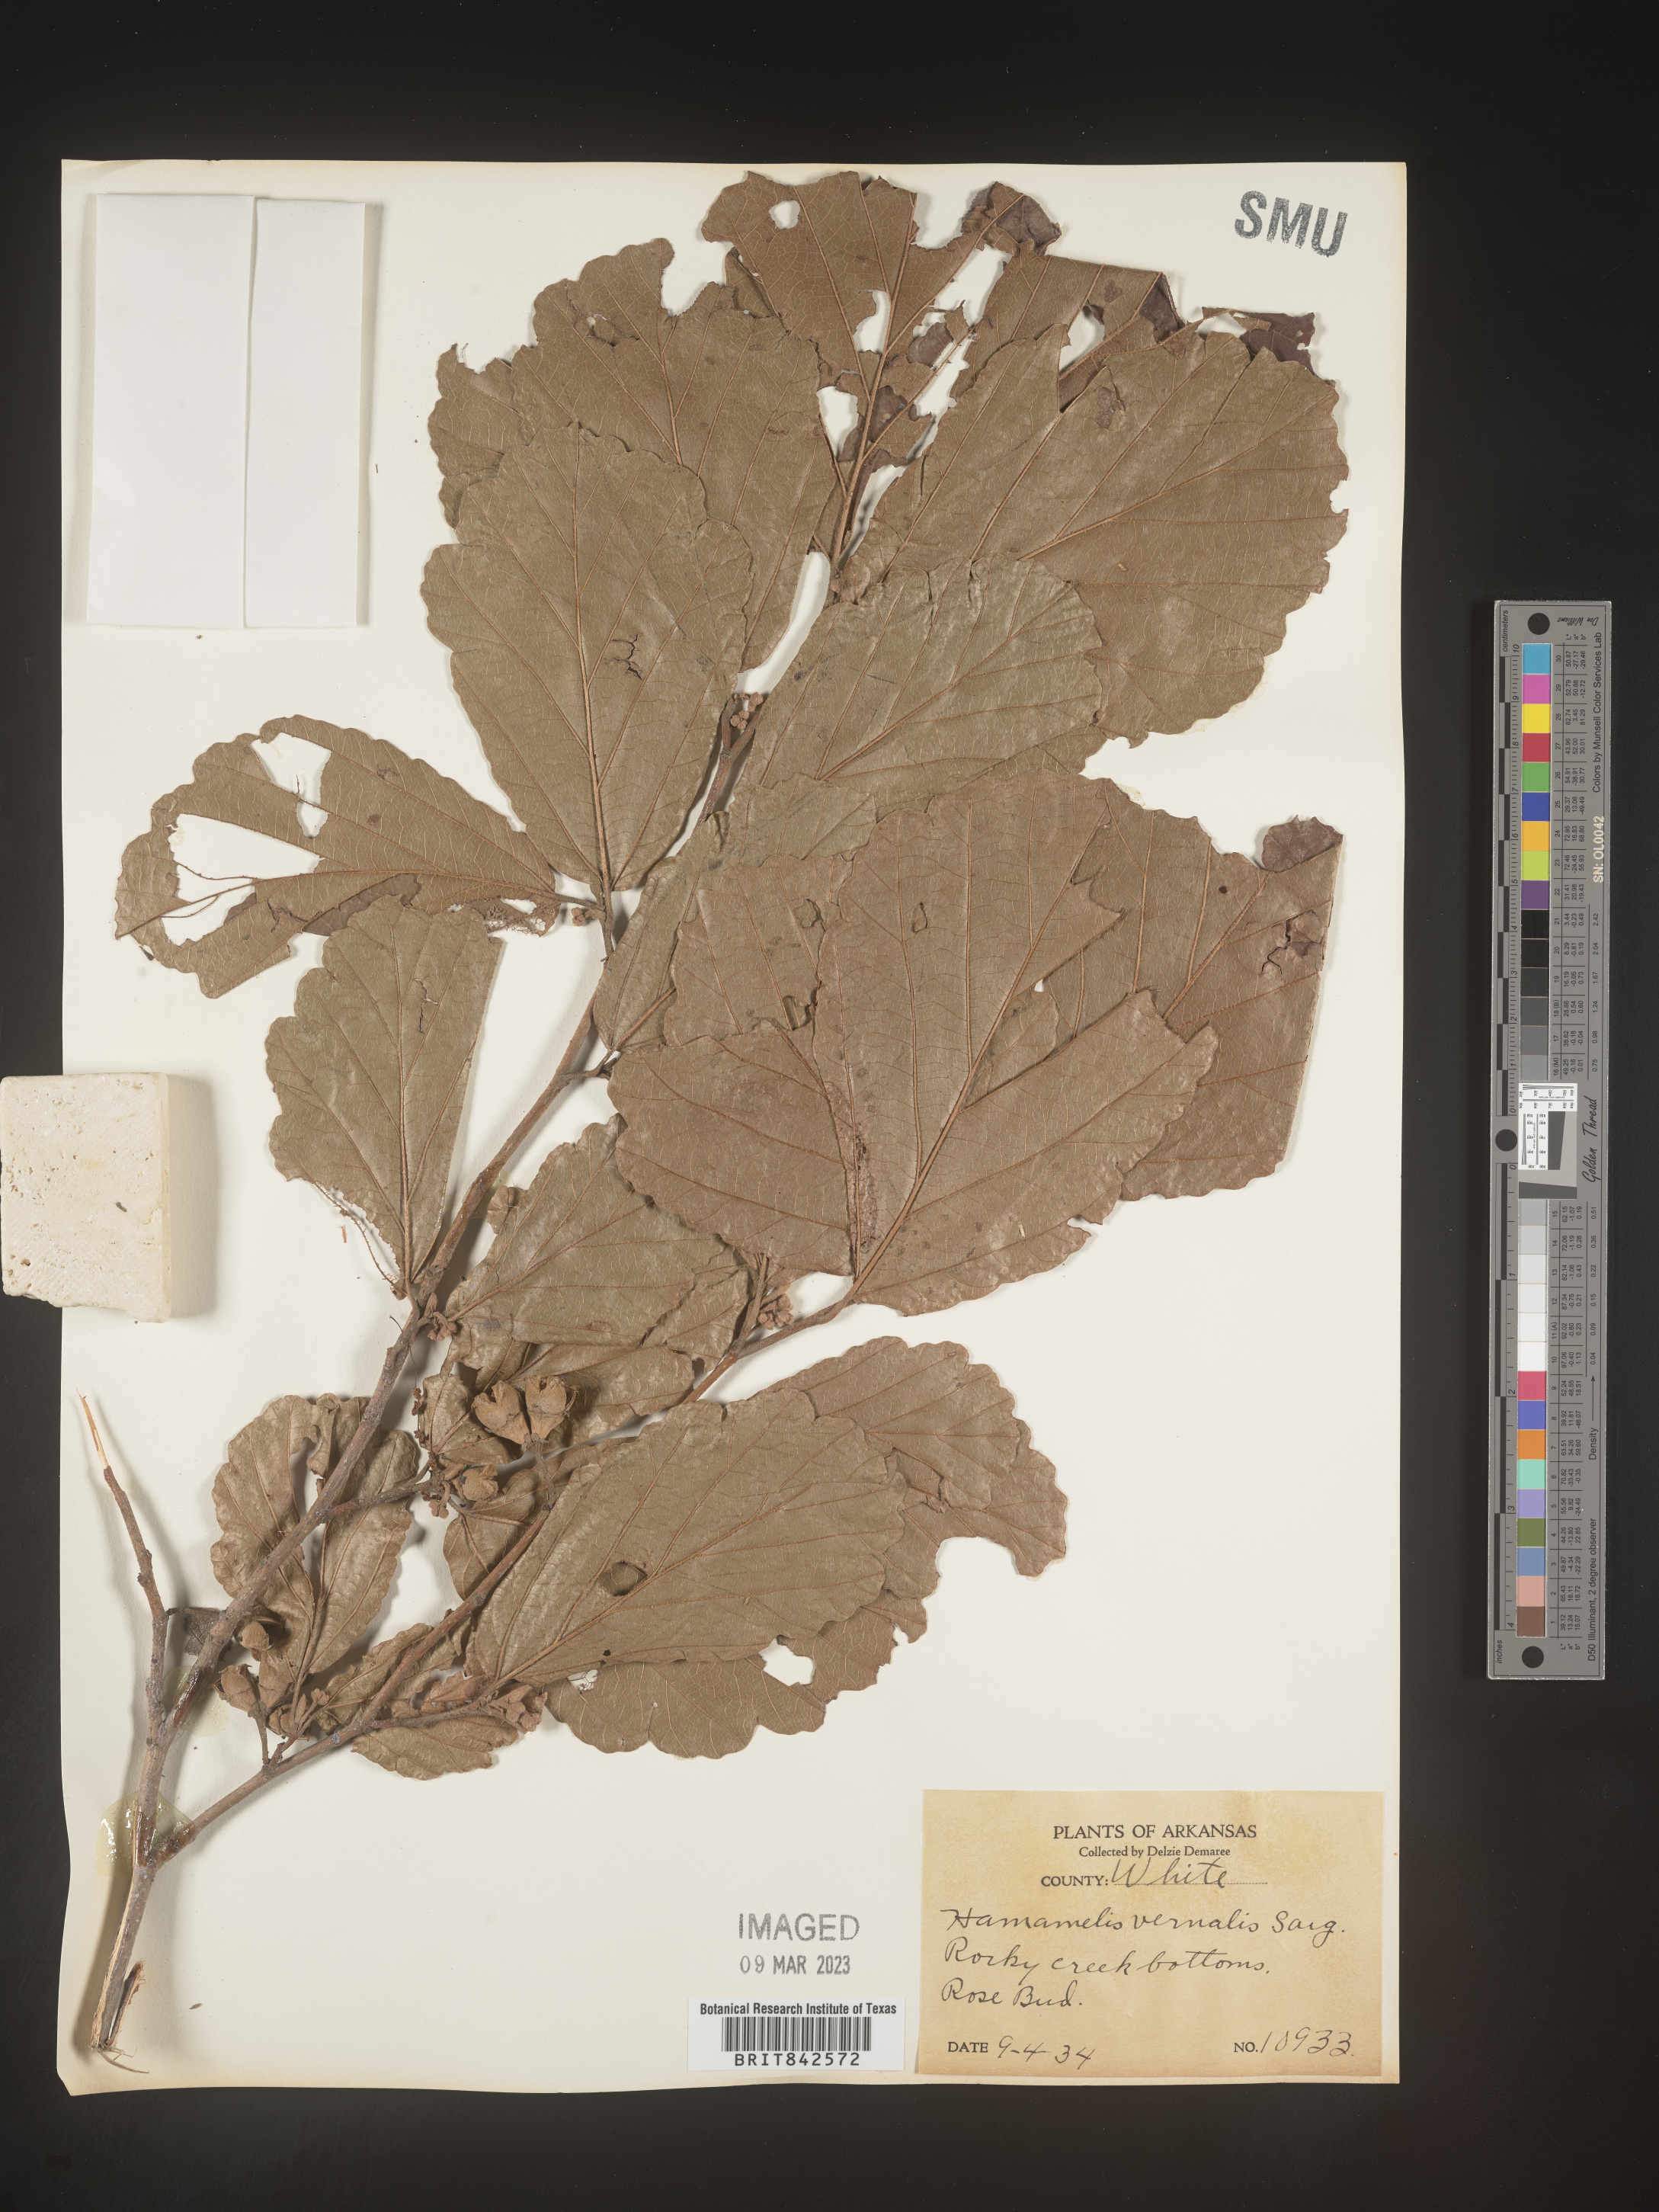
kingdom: Plantae
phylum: Tracheophyta
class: Magnoliopsida
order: Saxifragales
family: Hamamelidaceae
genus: Hamamelis
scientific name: Hamamelis vernalis
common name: Ozark witch-hazel
